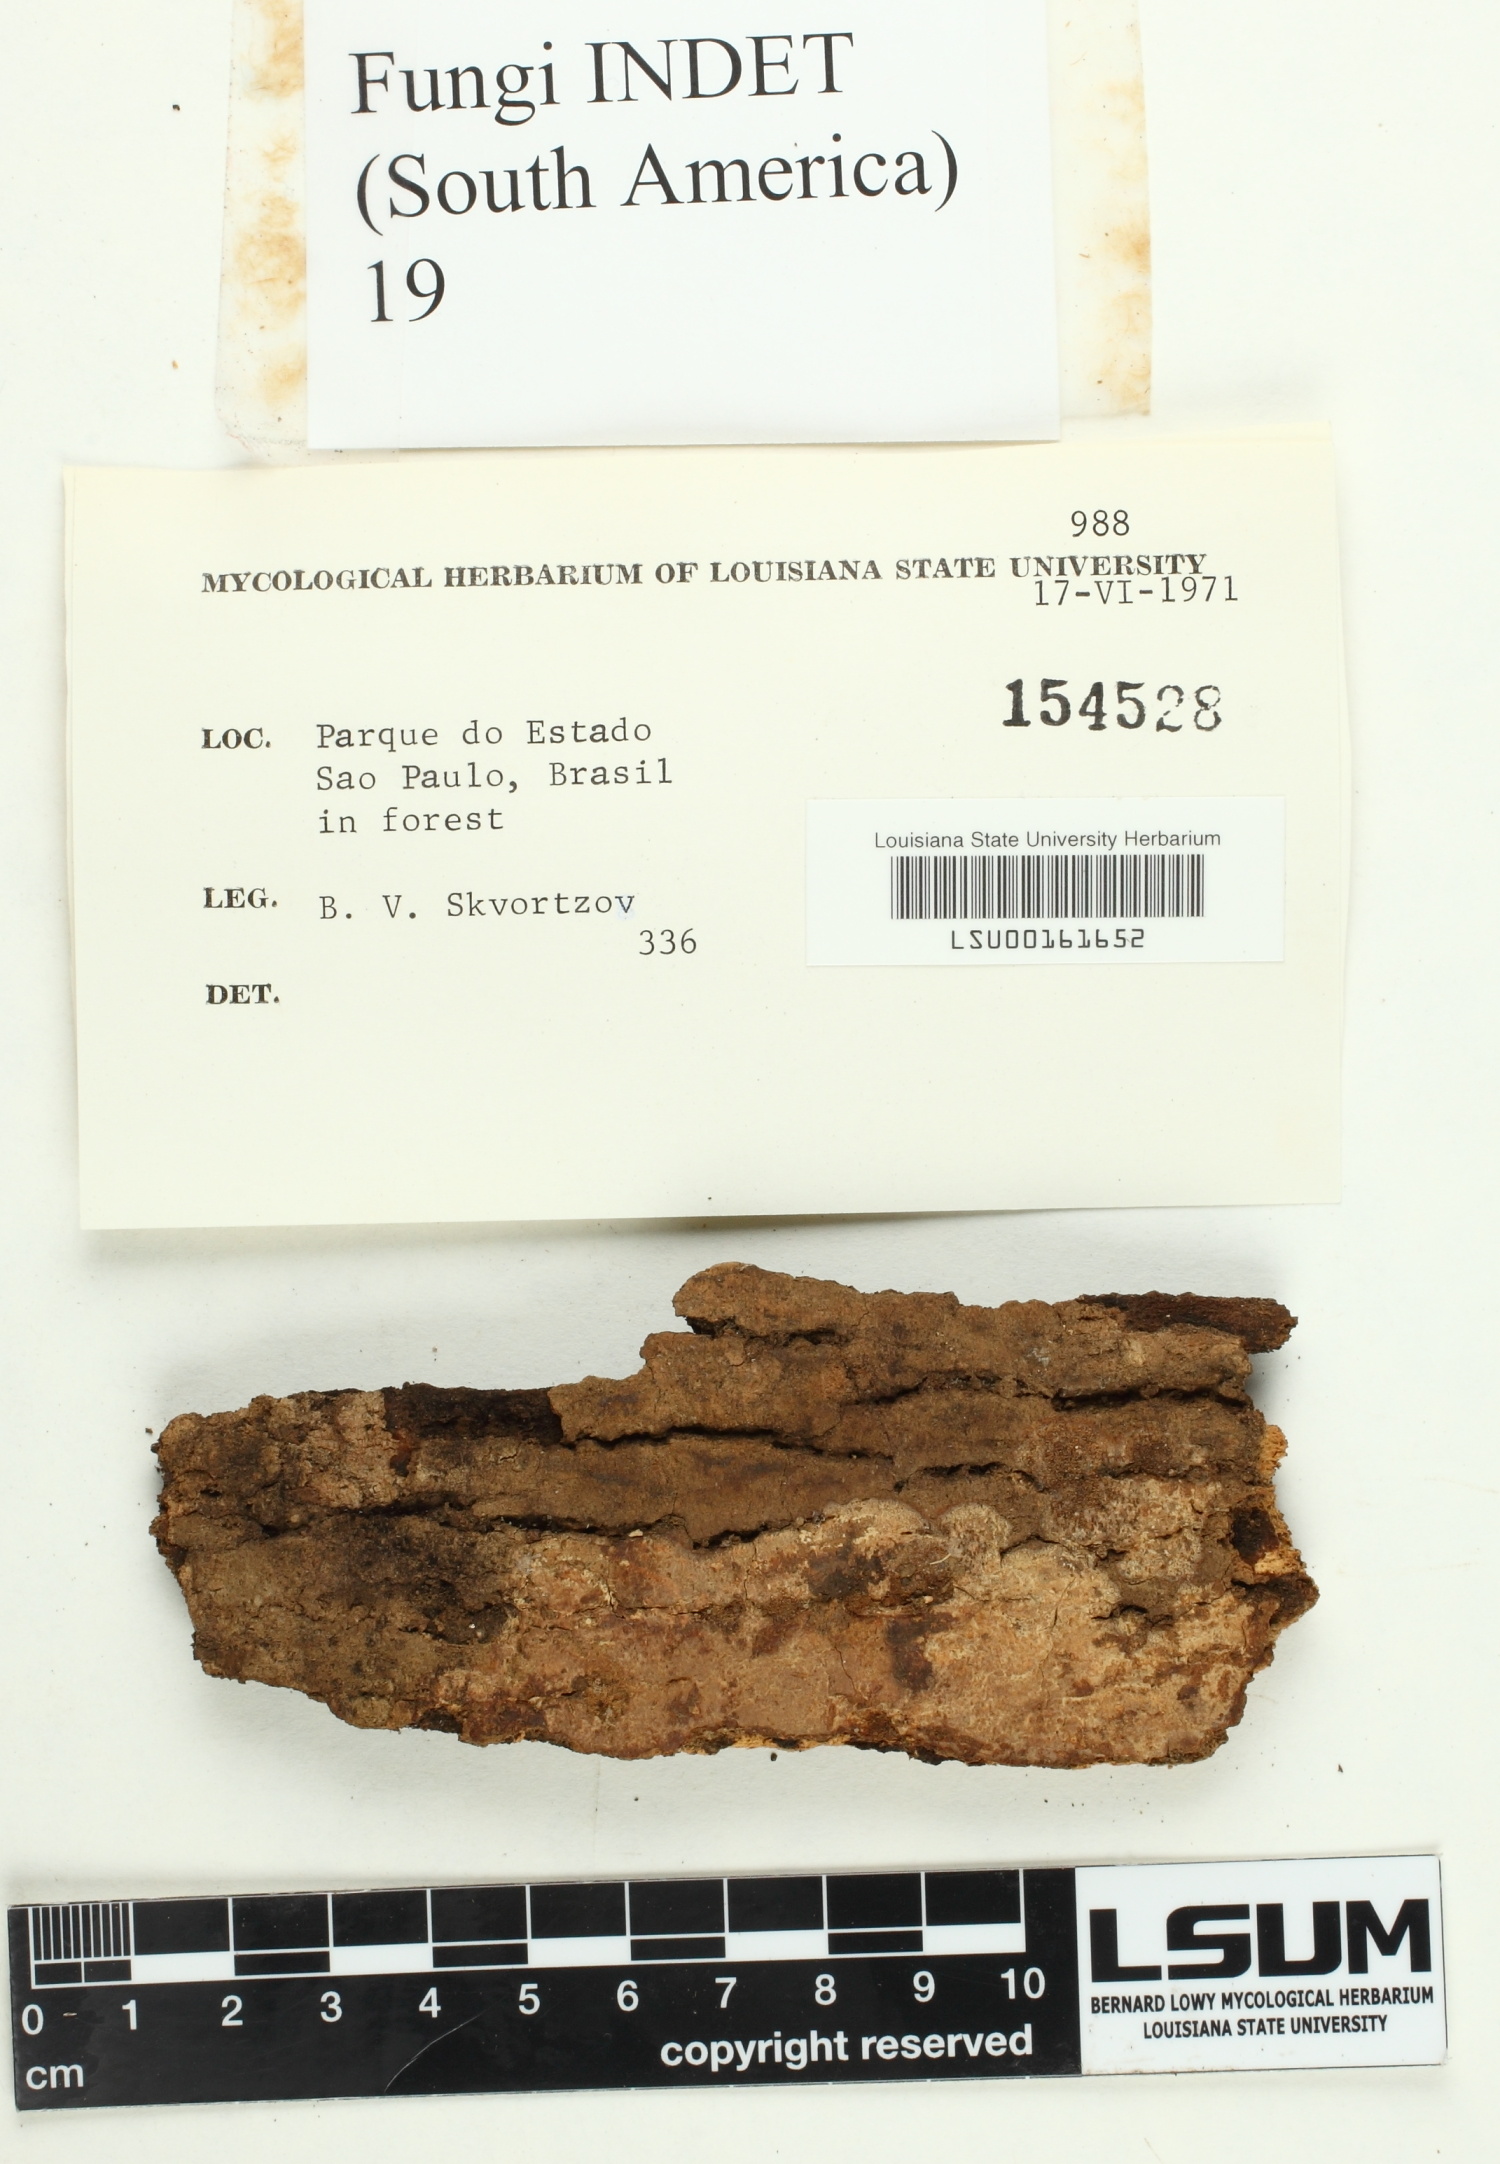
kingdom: Fungi
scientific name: Fungi
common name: Fungi
